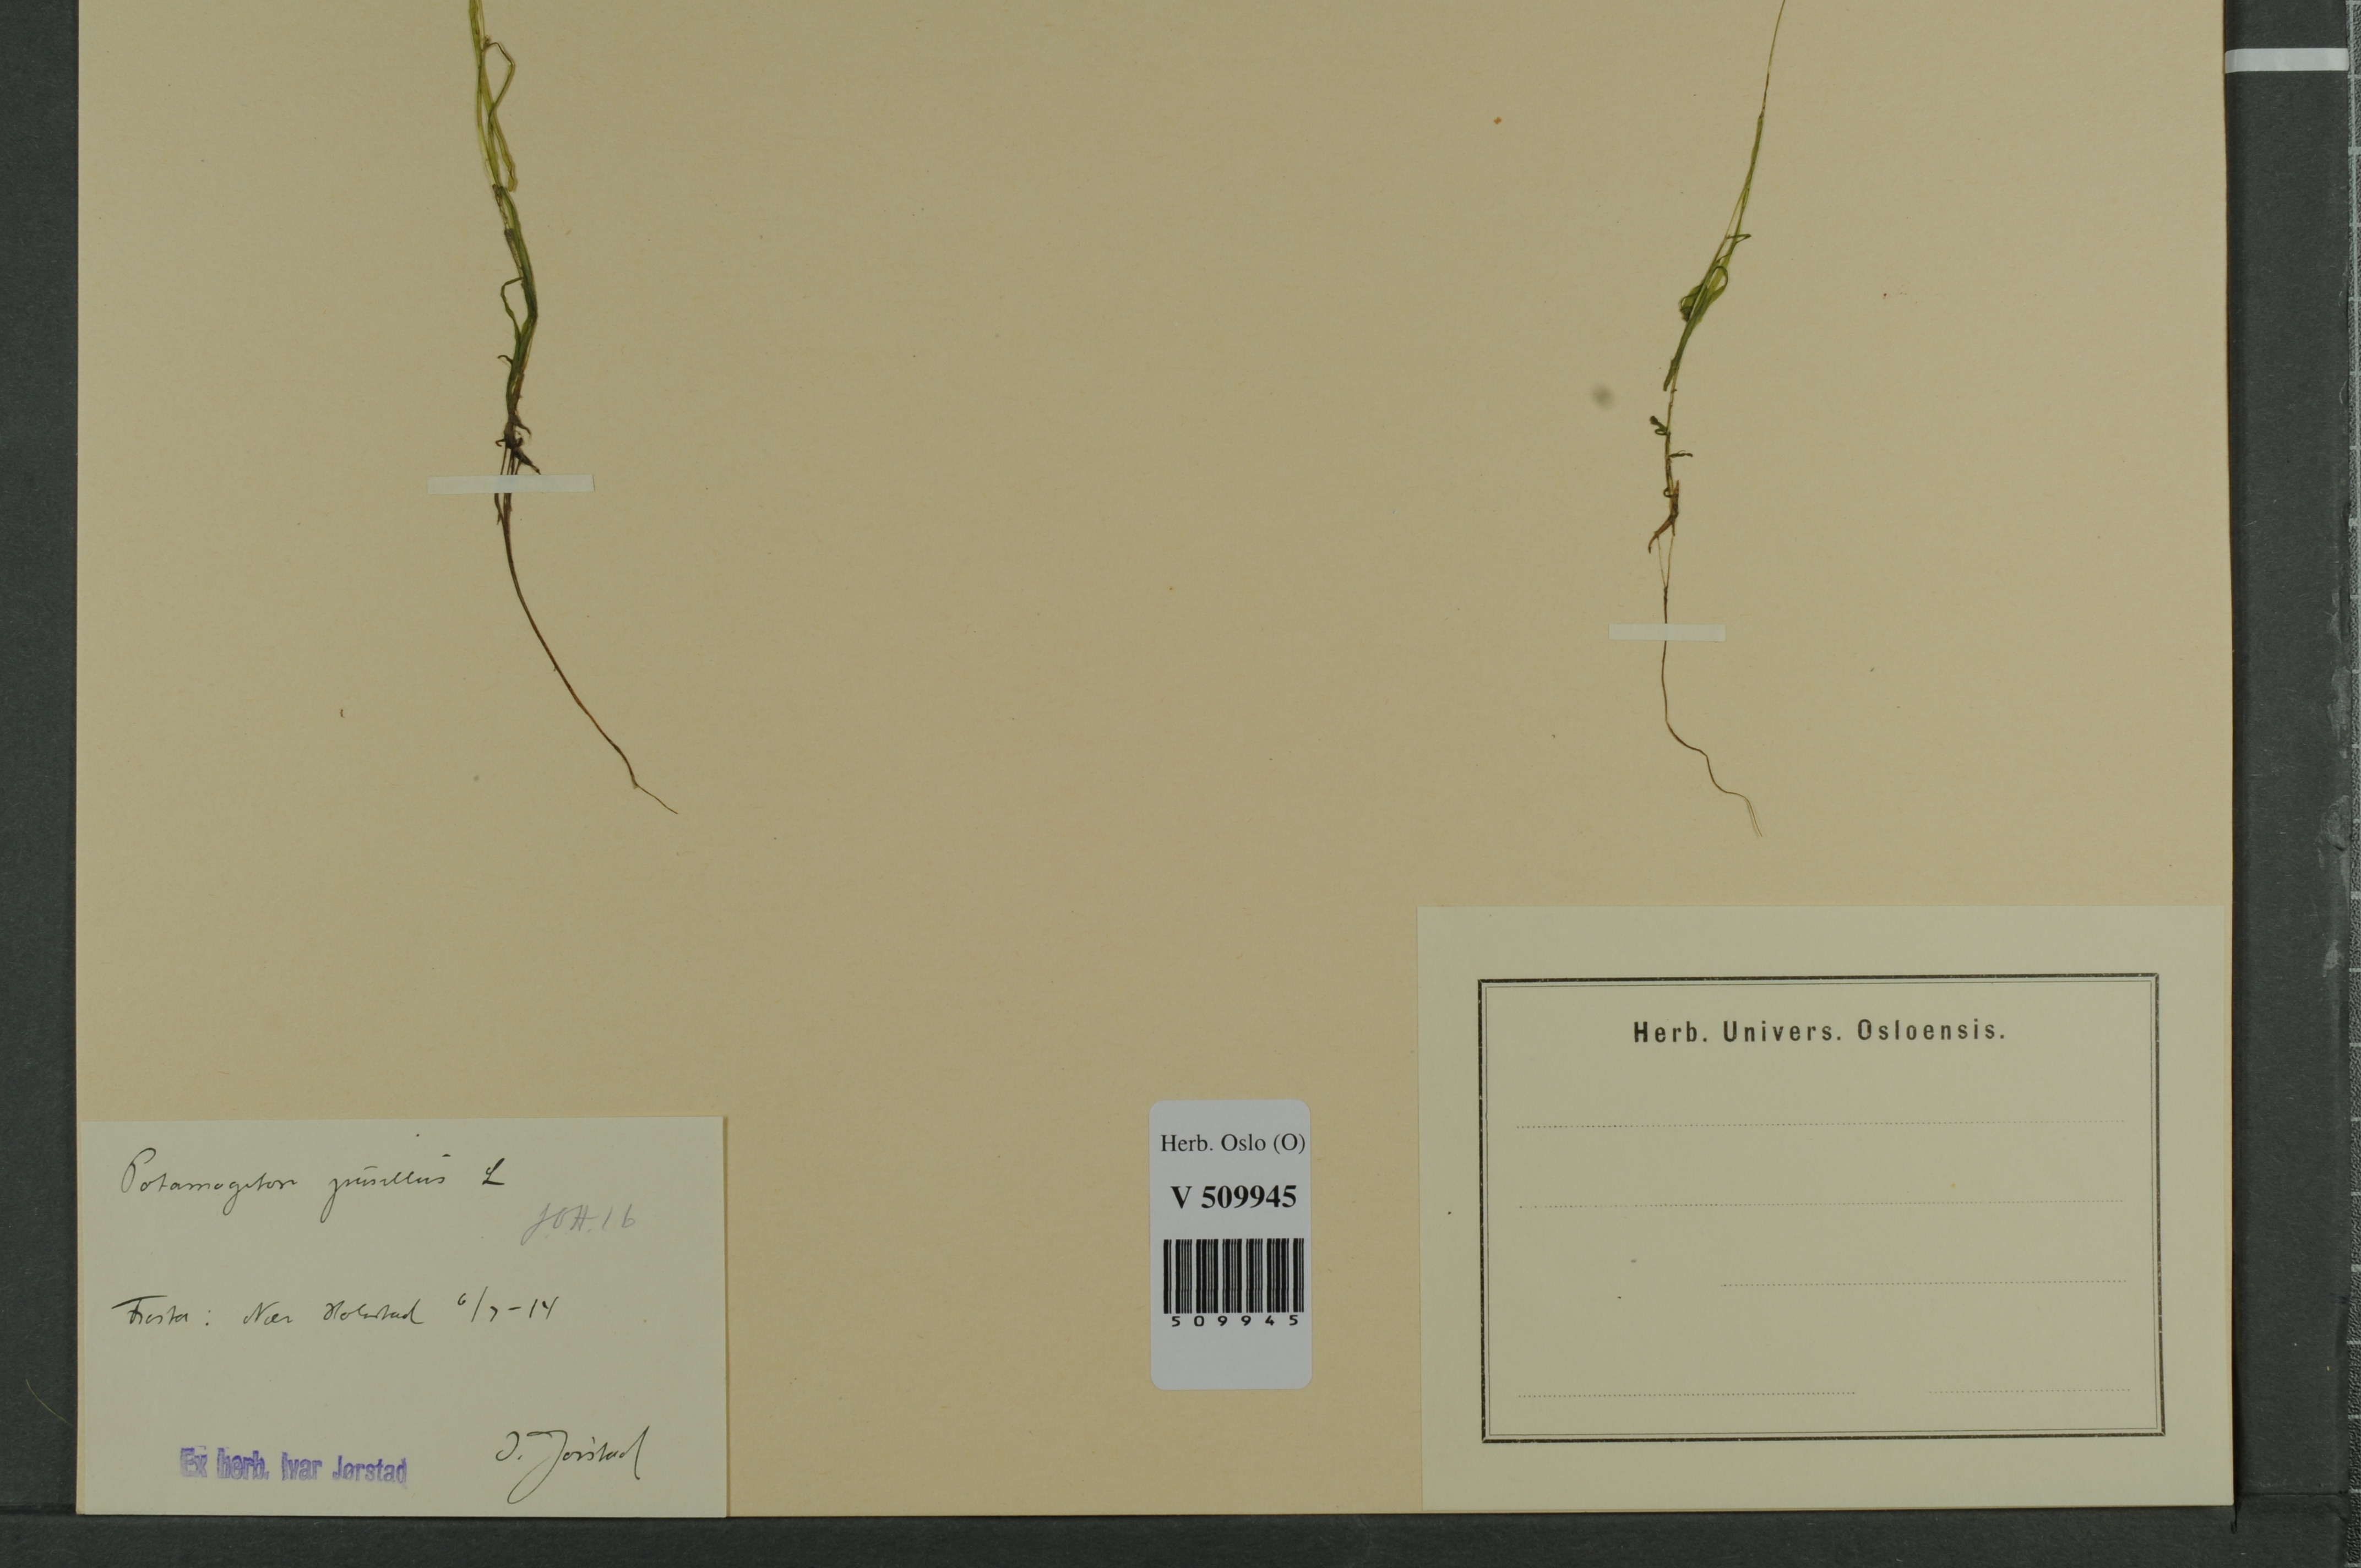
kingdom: Plantae
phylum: Tracheophyta
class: Liliopsida
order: Alismatales
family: Potamogetonaceae
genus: Potamogeton
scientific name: Potamogeton berchtoldii
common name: Small pondweed
